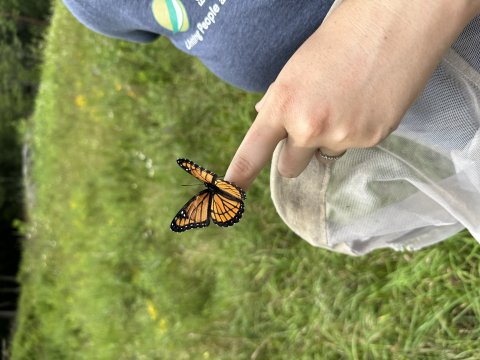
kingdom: Animalia
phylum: Arthropoda
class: Insecta
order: Lepidoptera
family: Nymphalidae
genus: Limenitis
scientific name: Limenitis archippus
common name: Viceroy
